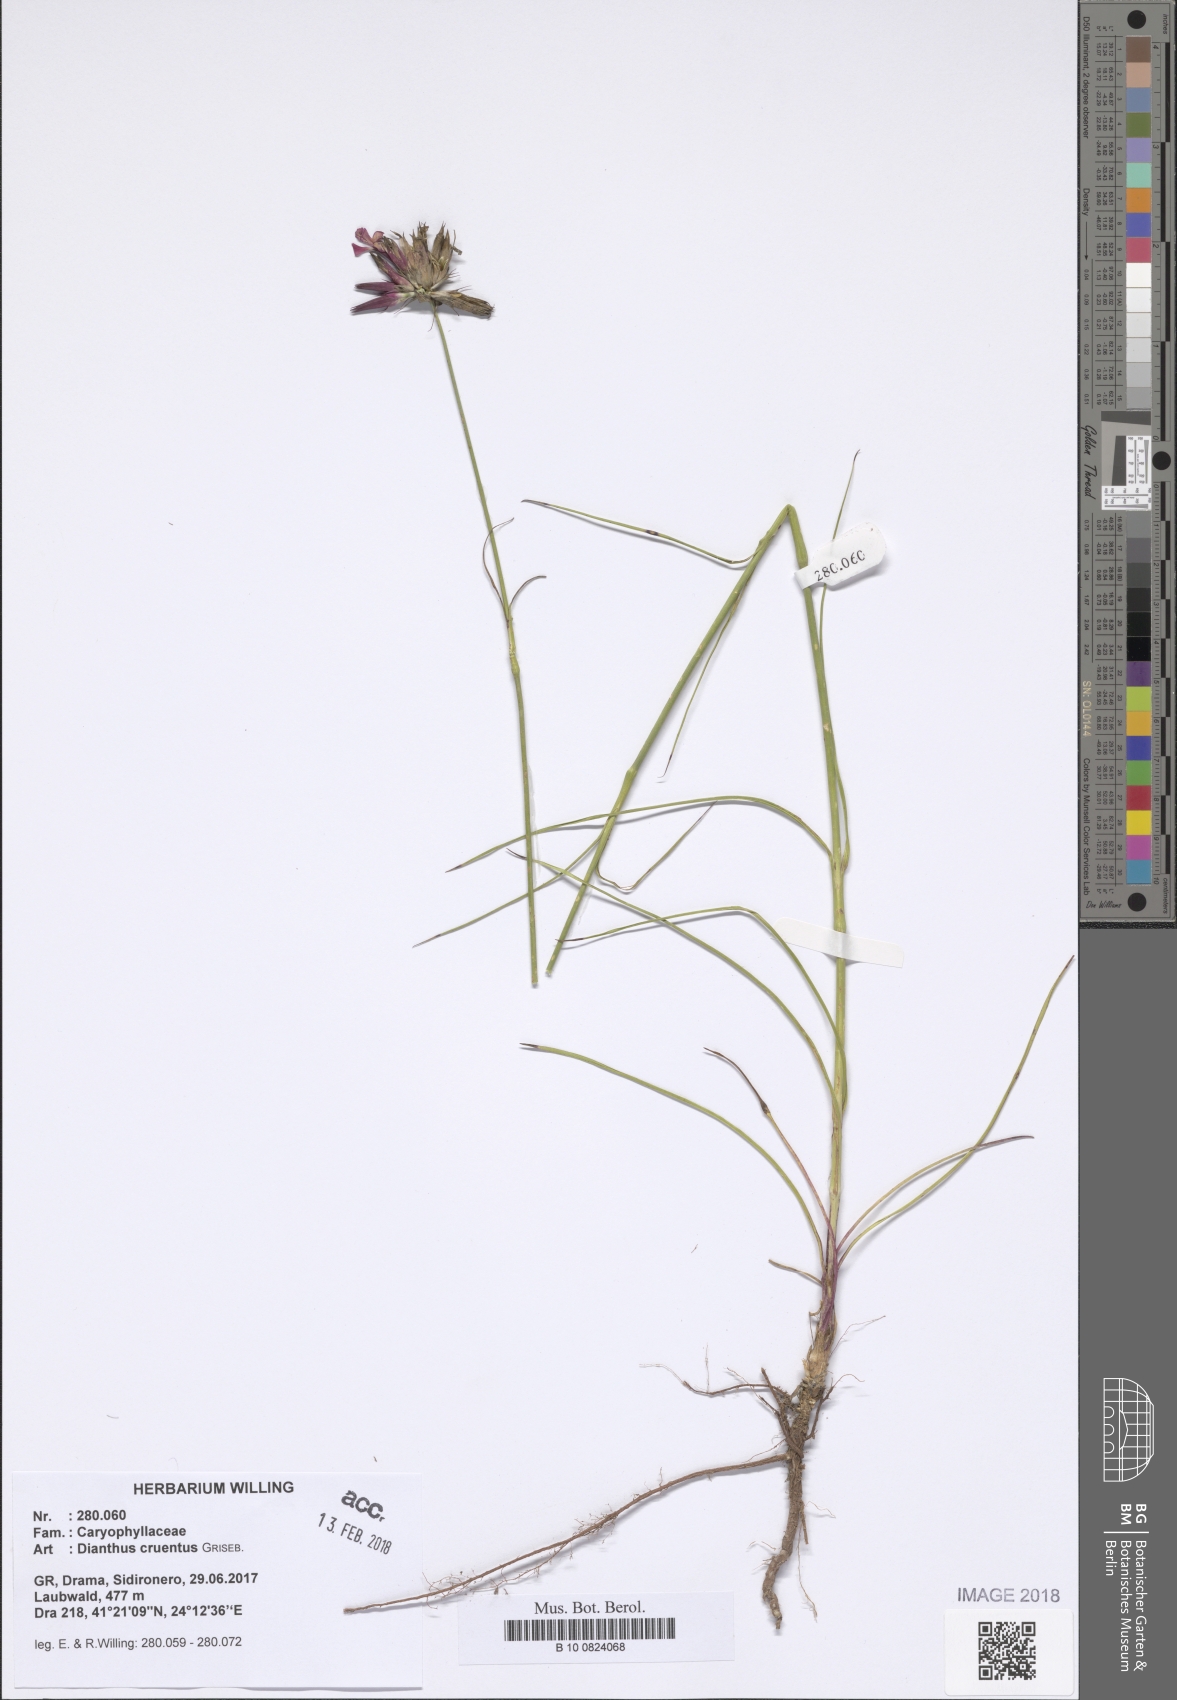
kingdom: Plantae
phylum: Tracheophyta
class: Magnoliopsida
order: Caryophyllales
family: Caryophyllaceae
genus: Dianthus
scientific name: Dianthus cruentus
